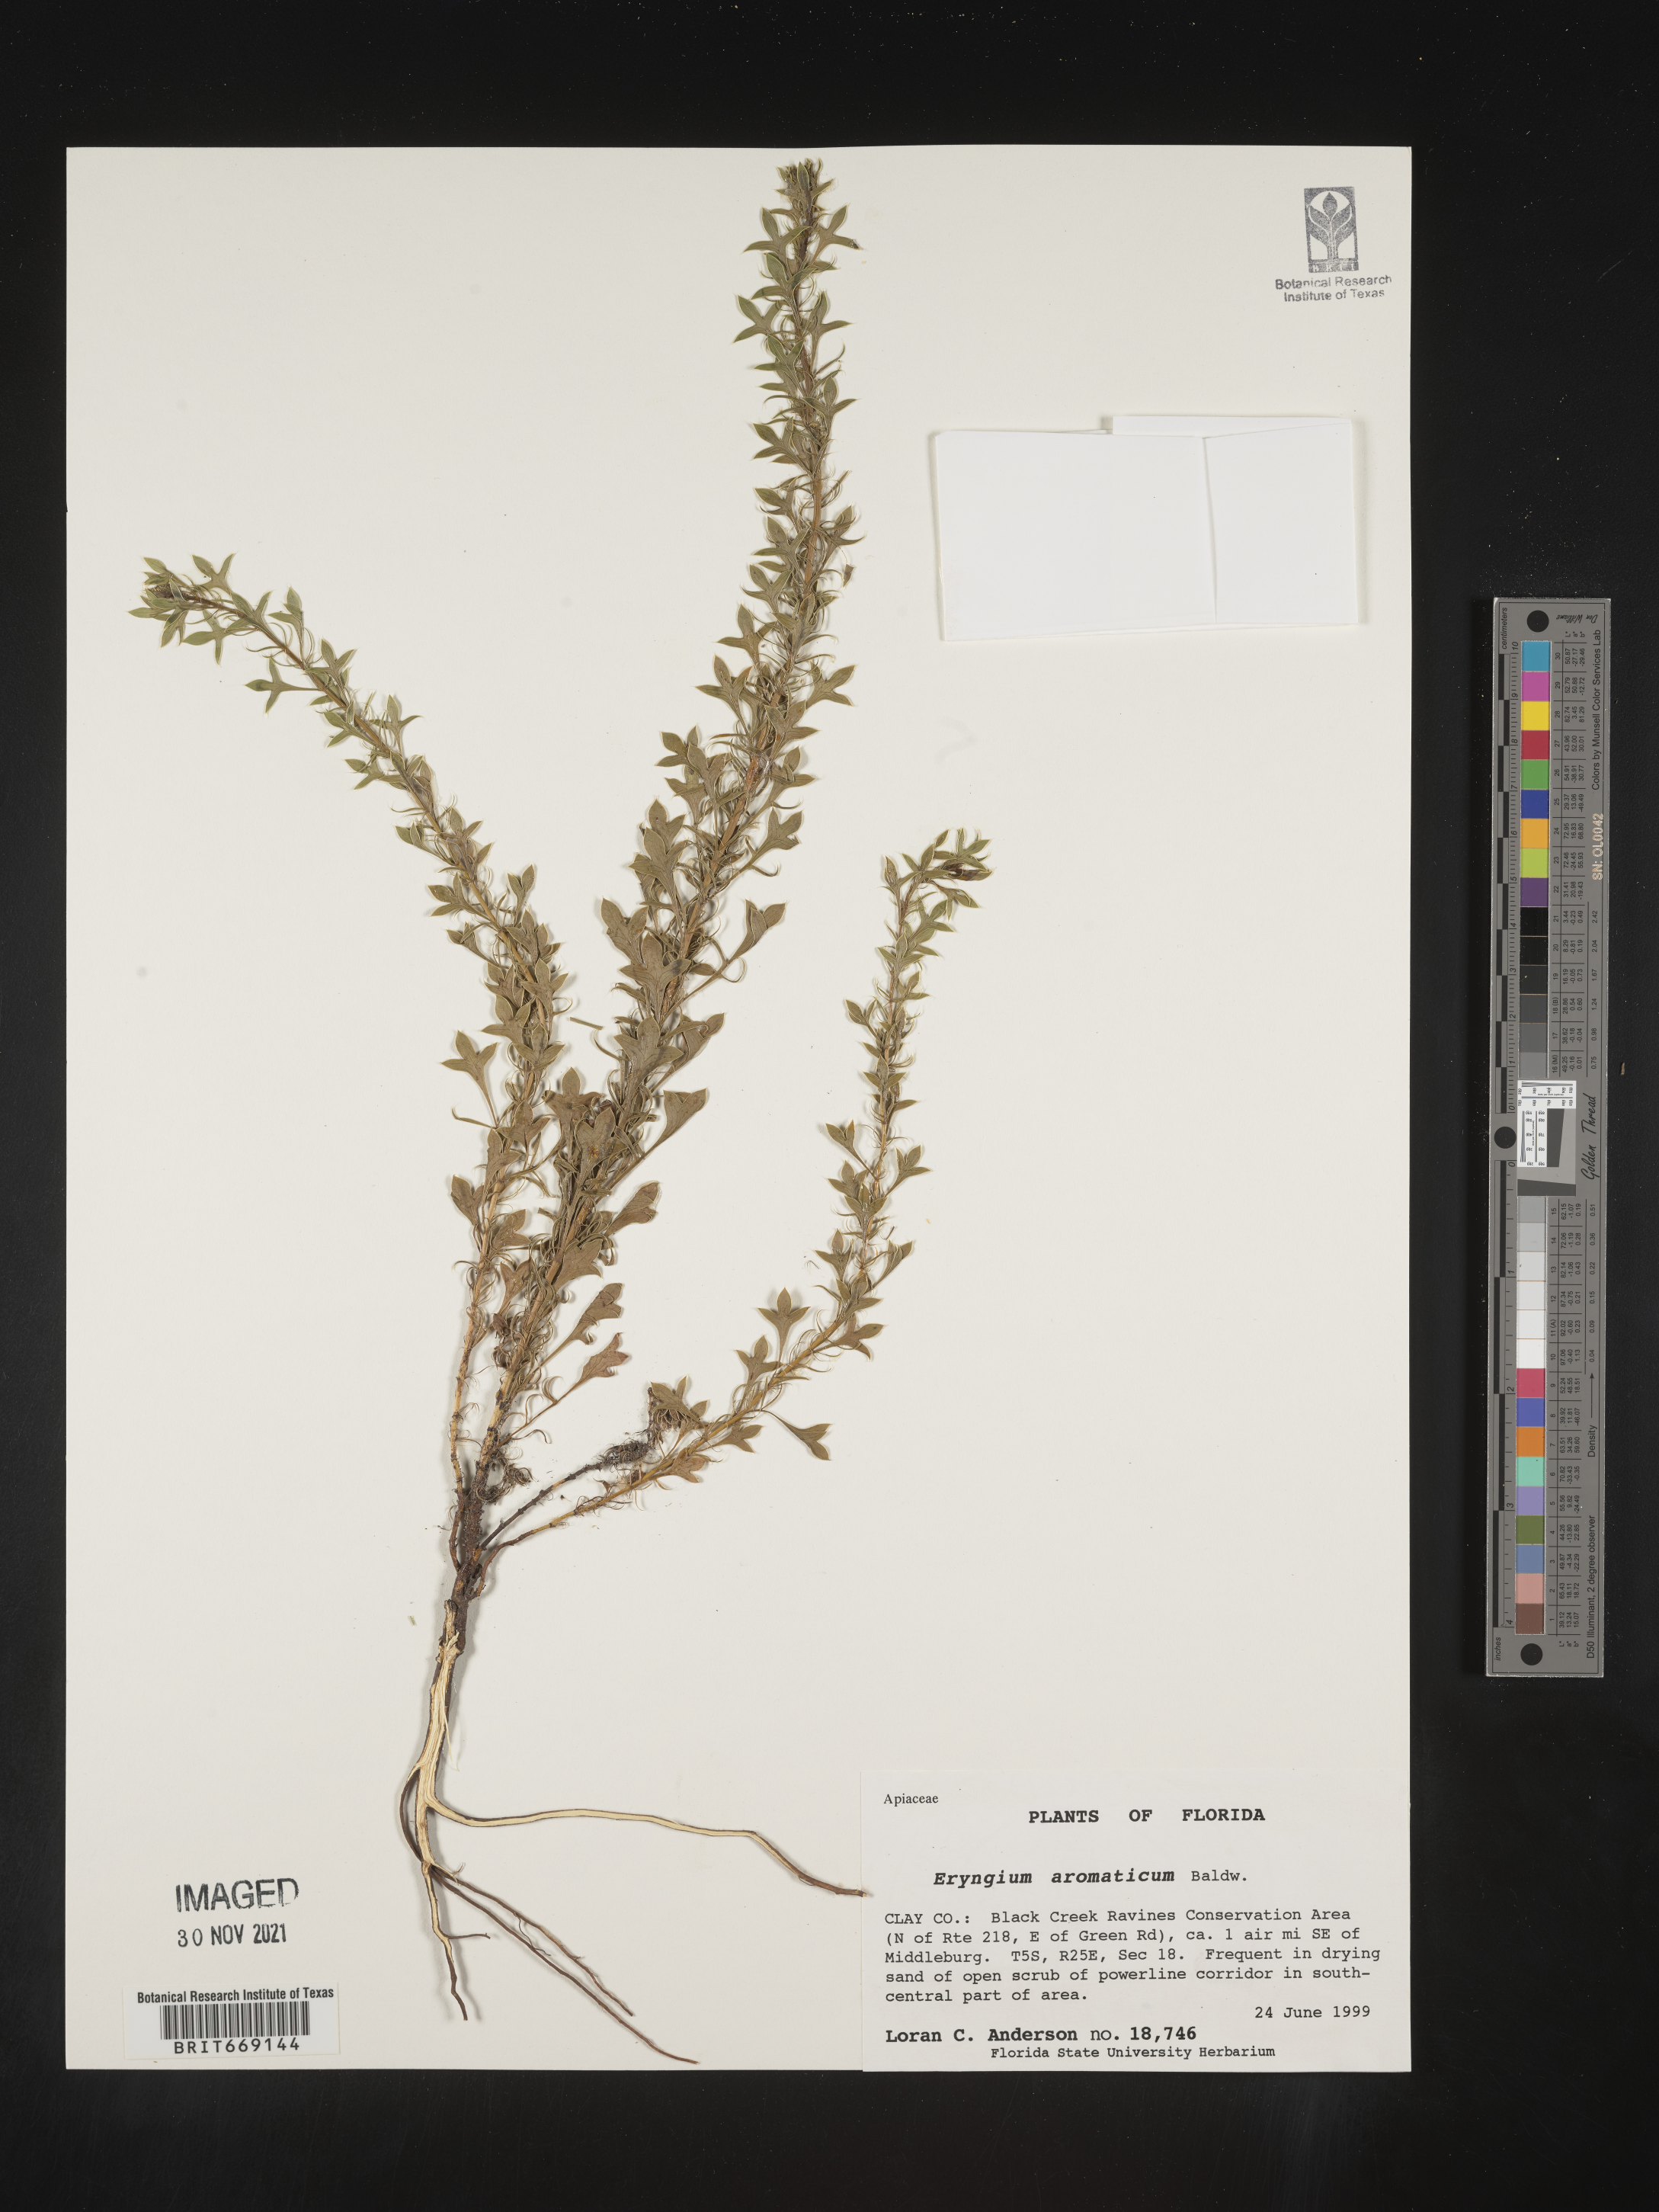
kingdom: Plantae
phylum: Tracheophyta
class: Magnoliopsida
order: Apiales
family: Apiaceae
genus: Eryngium
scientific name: Eryngium aromaticum
